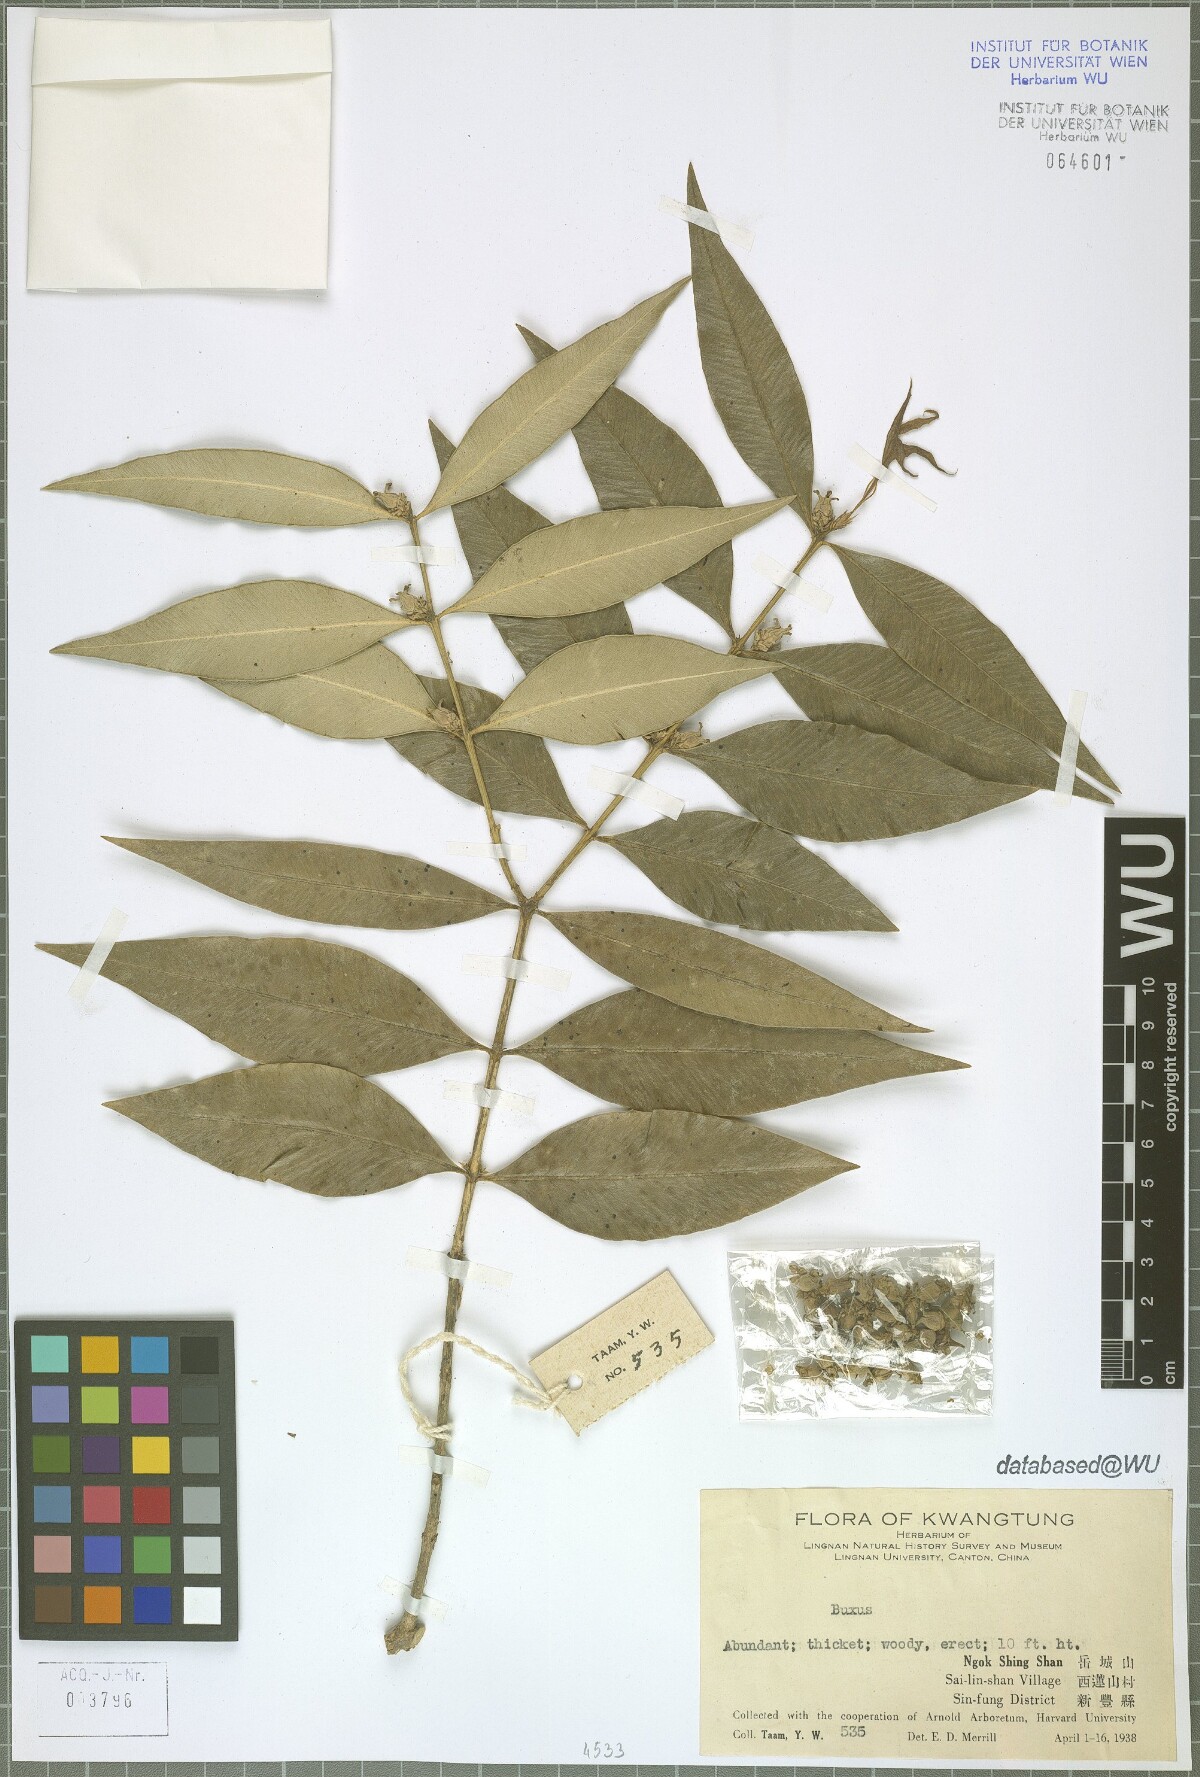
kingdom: Plantae
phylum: Tracheophyta
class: Magnoliopsida
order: Buxales
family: Buxaceae
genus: Buxus
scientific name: Buxus
